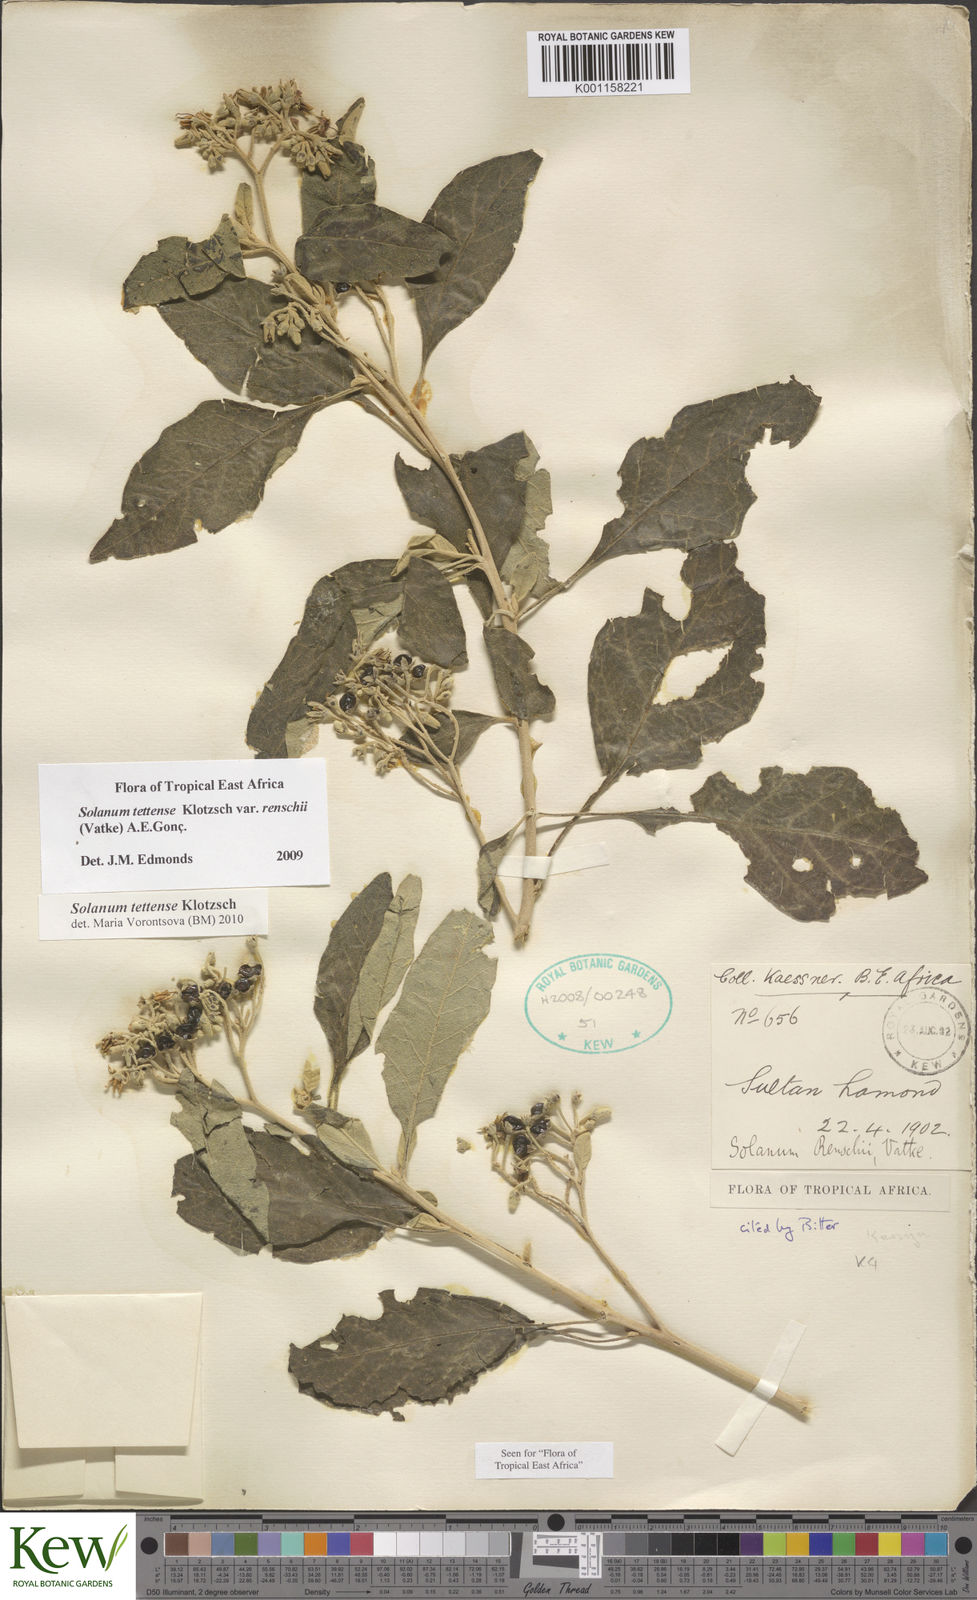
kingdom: Plantae
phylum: Tracheophyta
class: Magnoliopsida
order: Solanales
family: Solanaceae
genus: Solanum
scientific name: Solanum tettense
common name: Mozambique bitter apple
